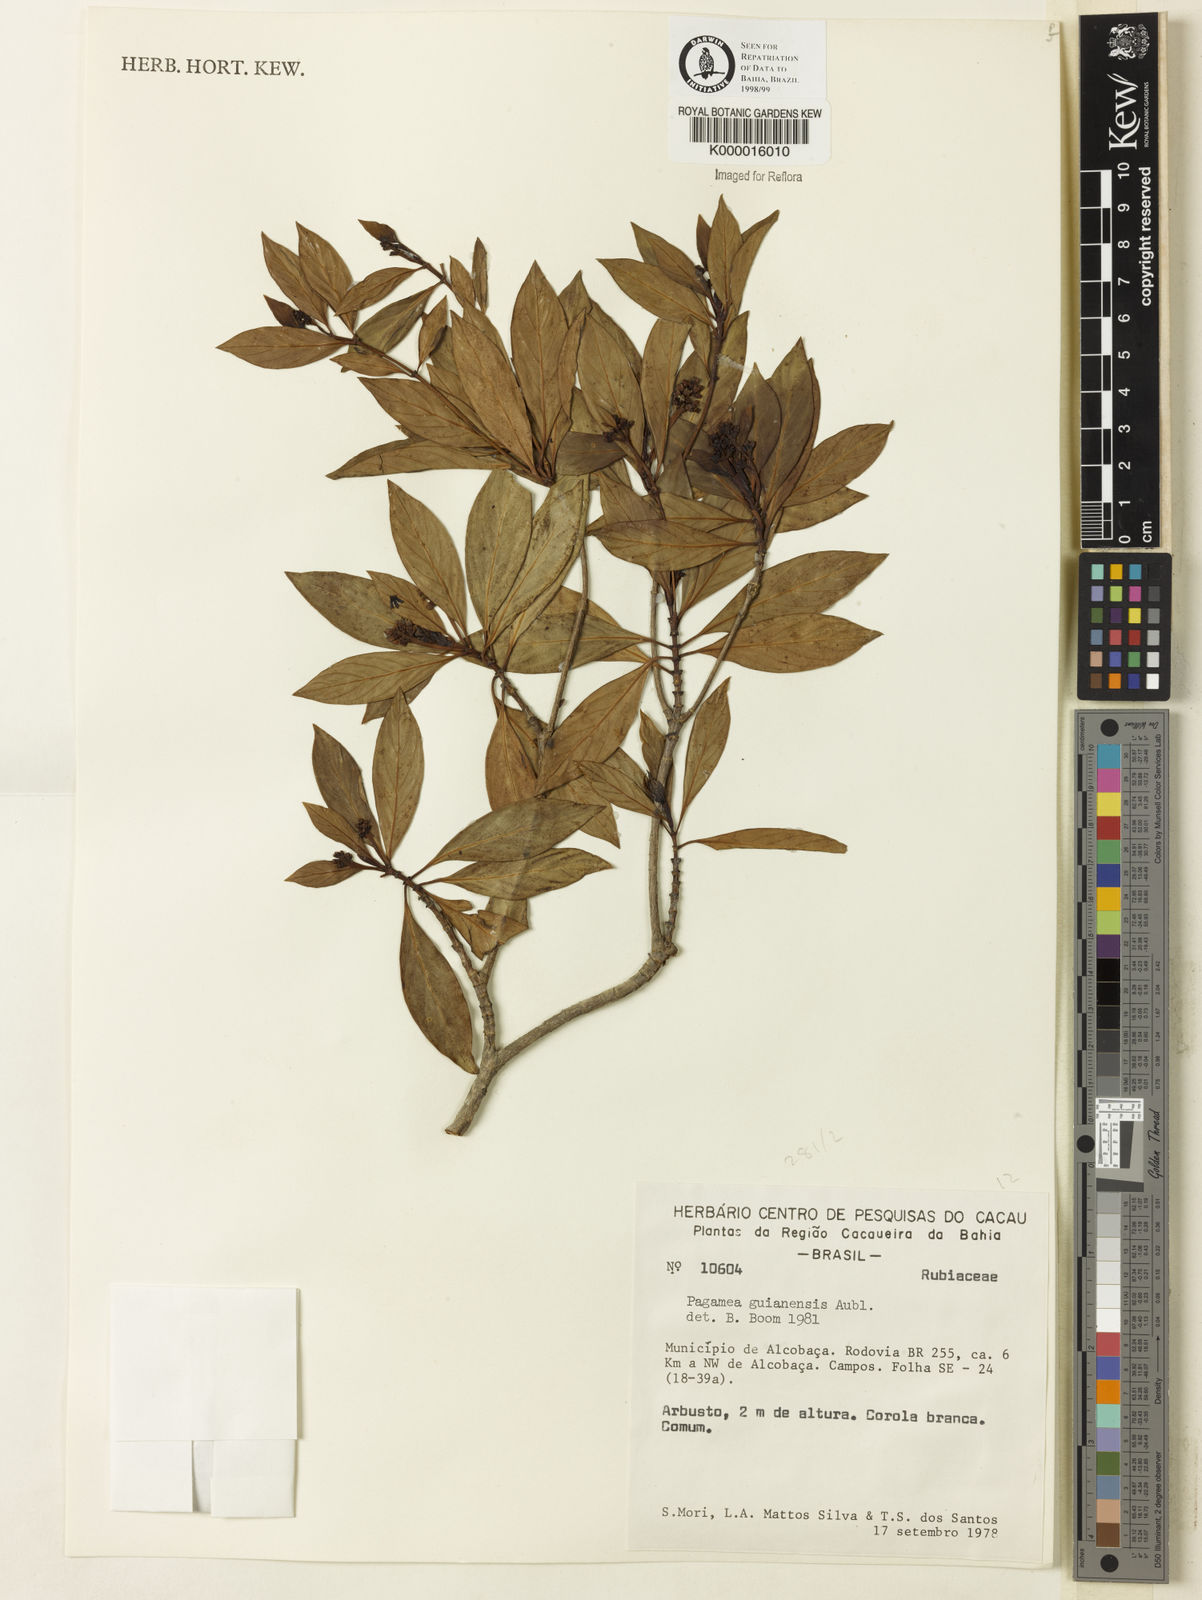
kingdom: Plantae
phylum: Tracheophyta
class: Magnoliopsida
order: Gentianales
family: Rubiaceae
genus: Pagamea
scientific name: Pagamea guianensis
